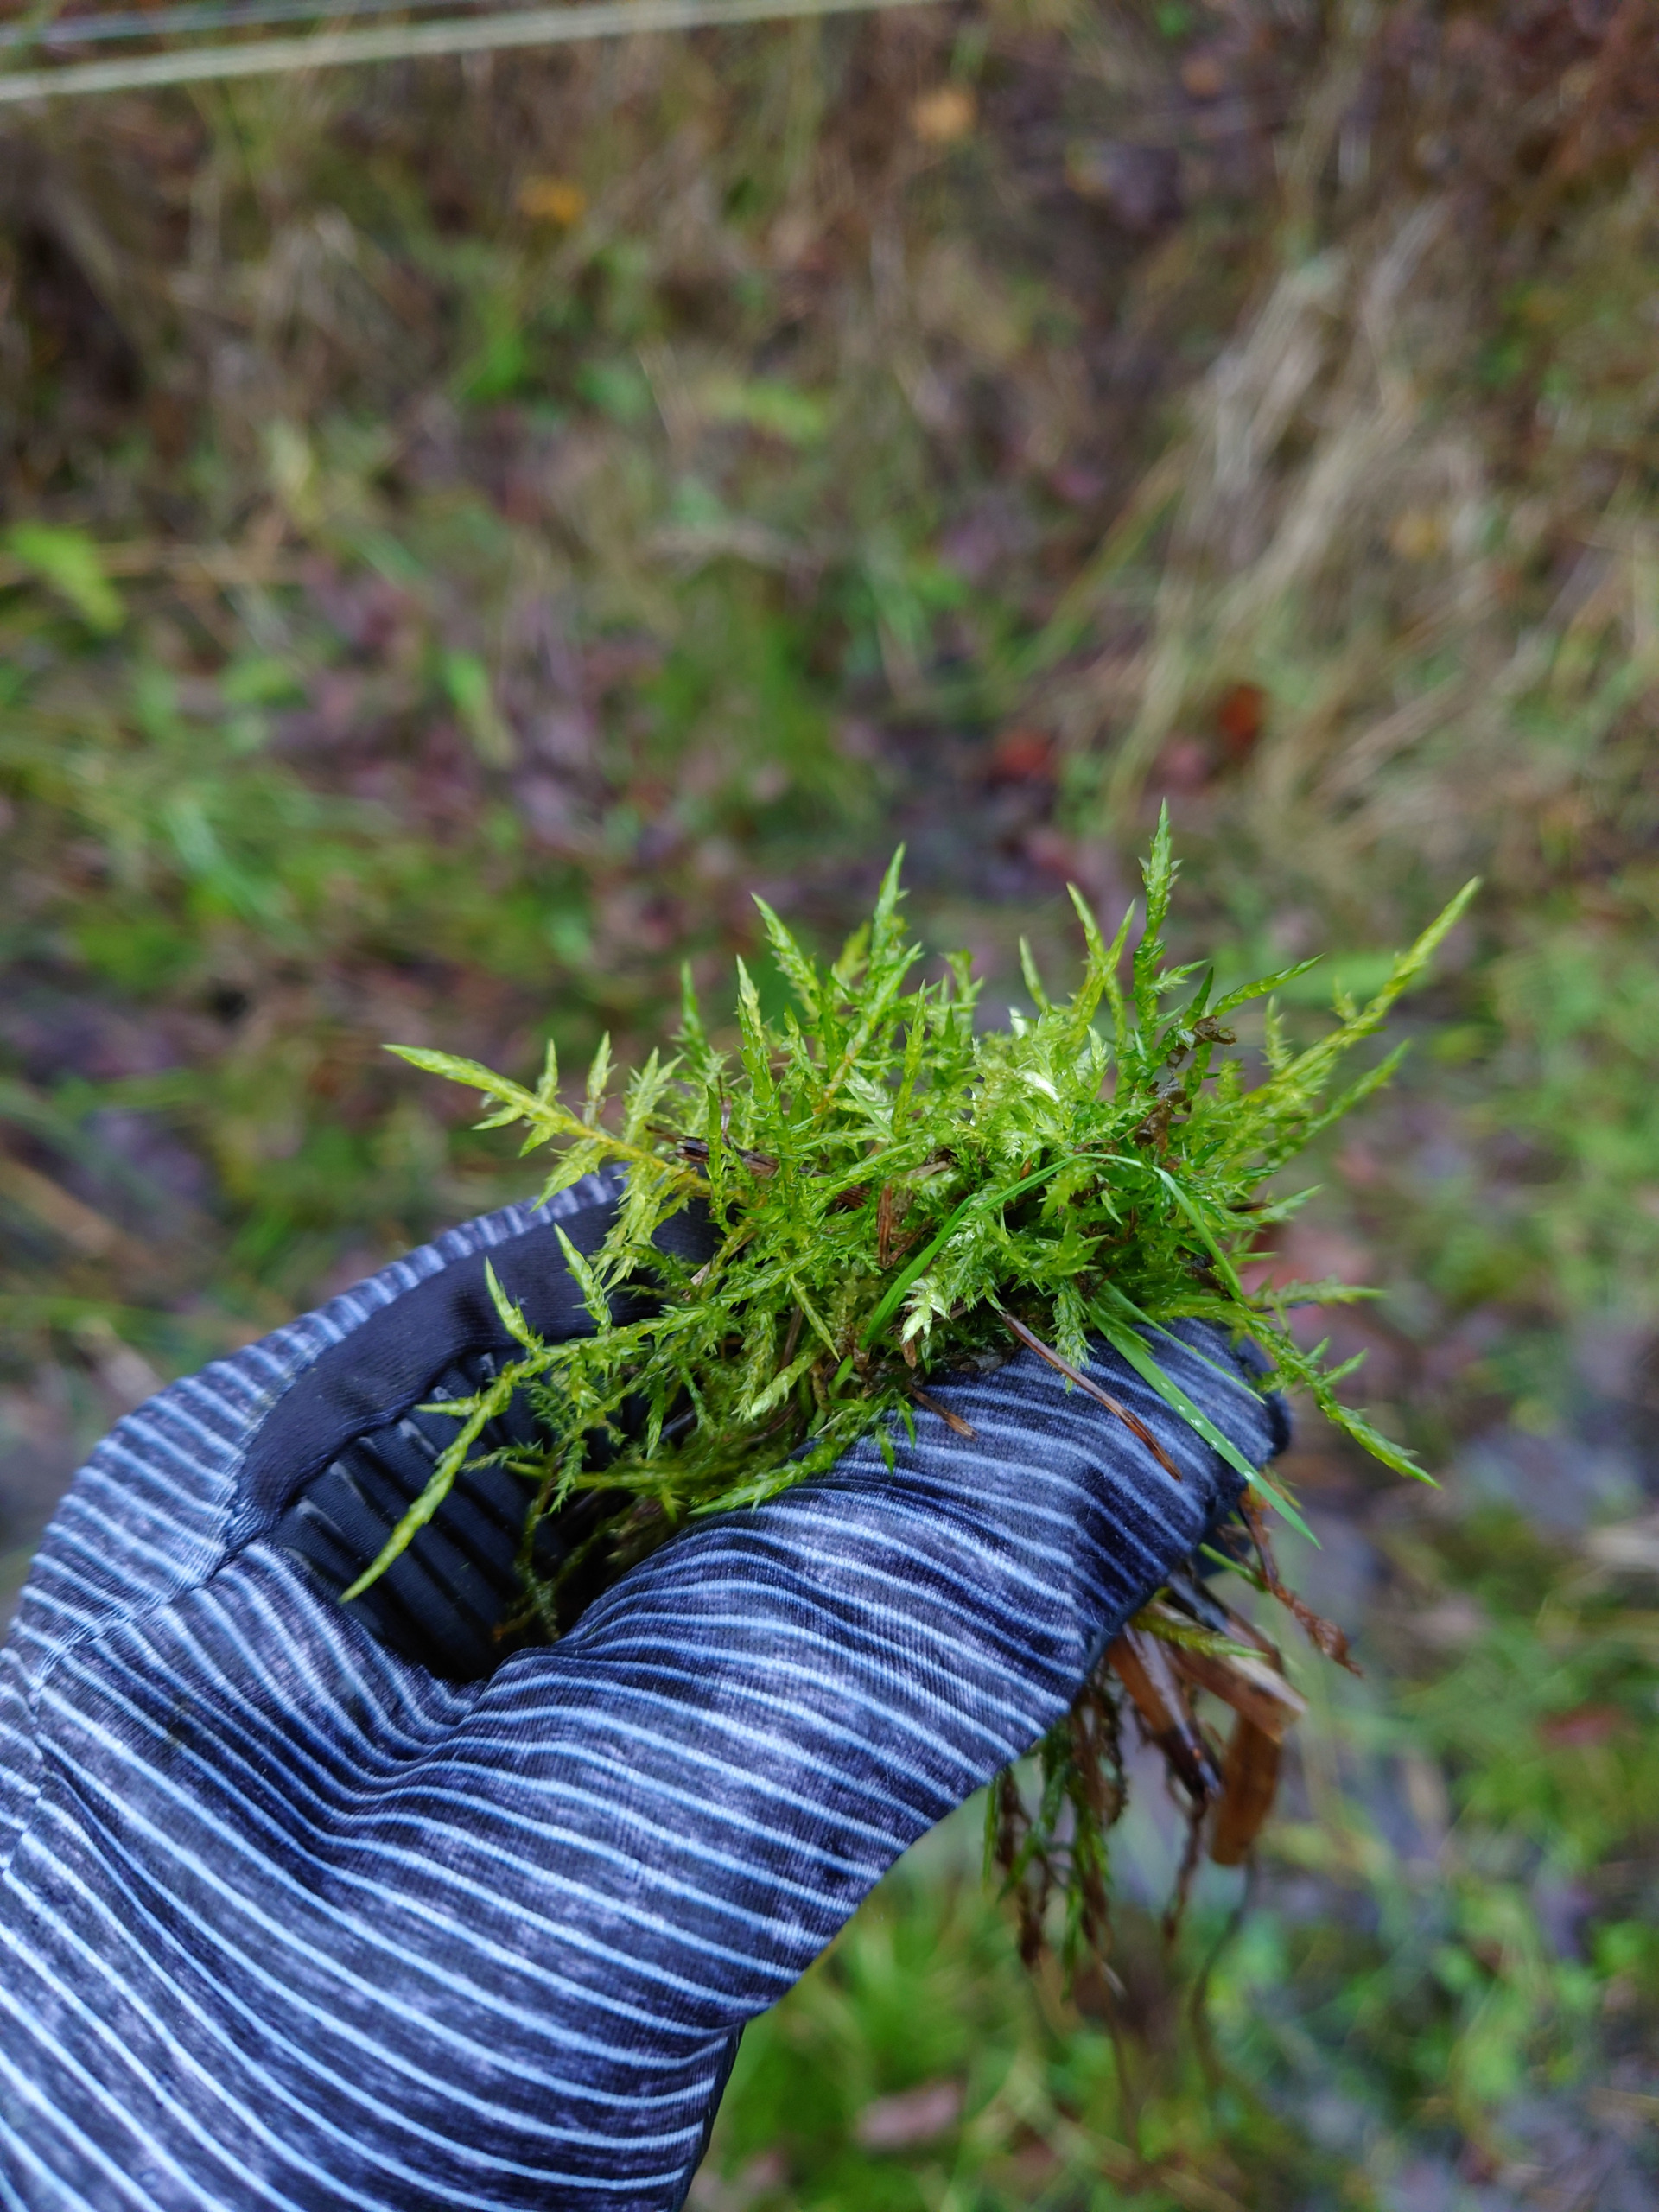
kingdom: Plantae
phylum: Bryophyta
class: Bryopsida
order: Hypnales
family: Pylaisiaceae
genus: Calliergonella
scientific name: Calliergonella cuspidata
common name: Spids spydmos
